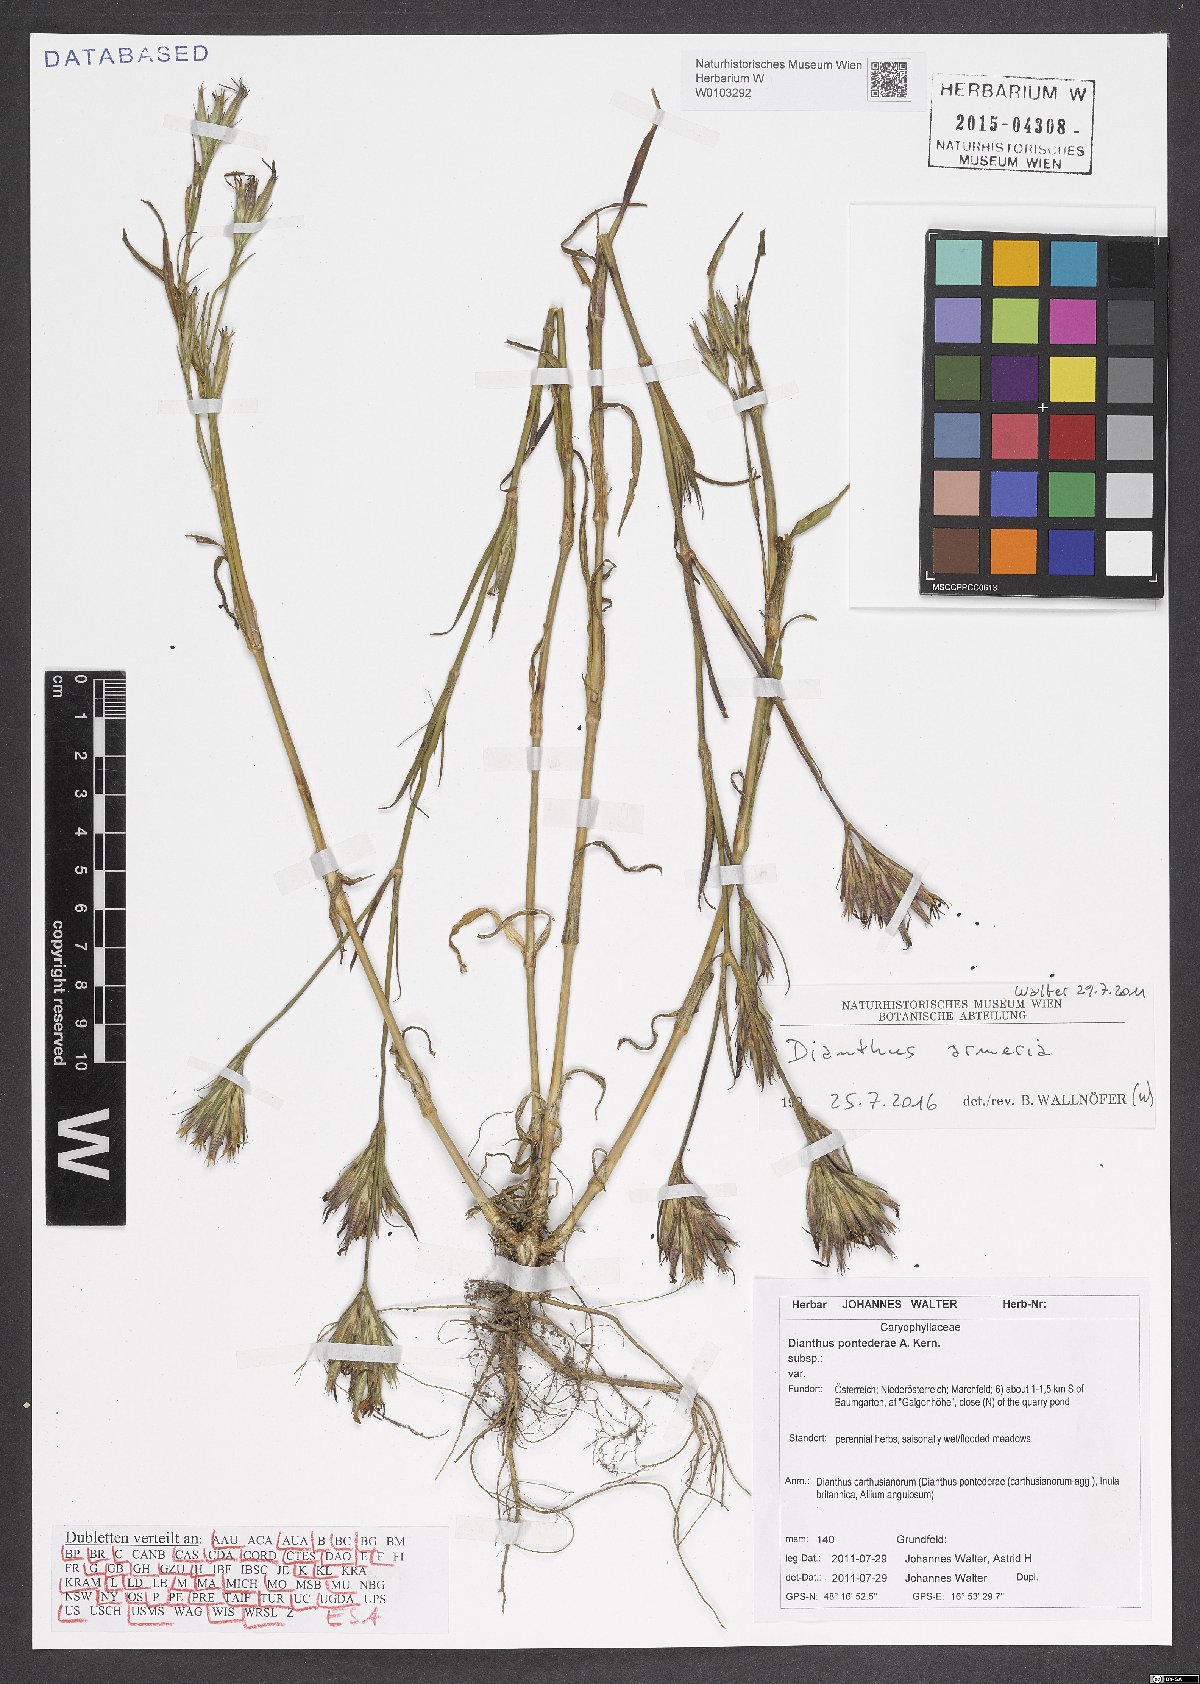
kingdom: Plantae
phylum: Tracheophyta
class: Magnoliopsida
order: Caryophyllales
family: Caryophyllaceae
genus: Dianthus
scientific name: Dianthus armeria
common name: Deptford pink
